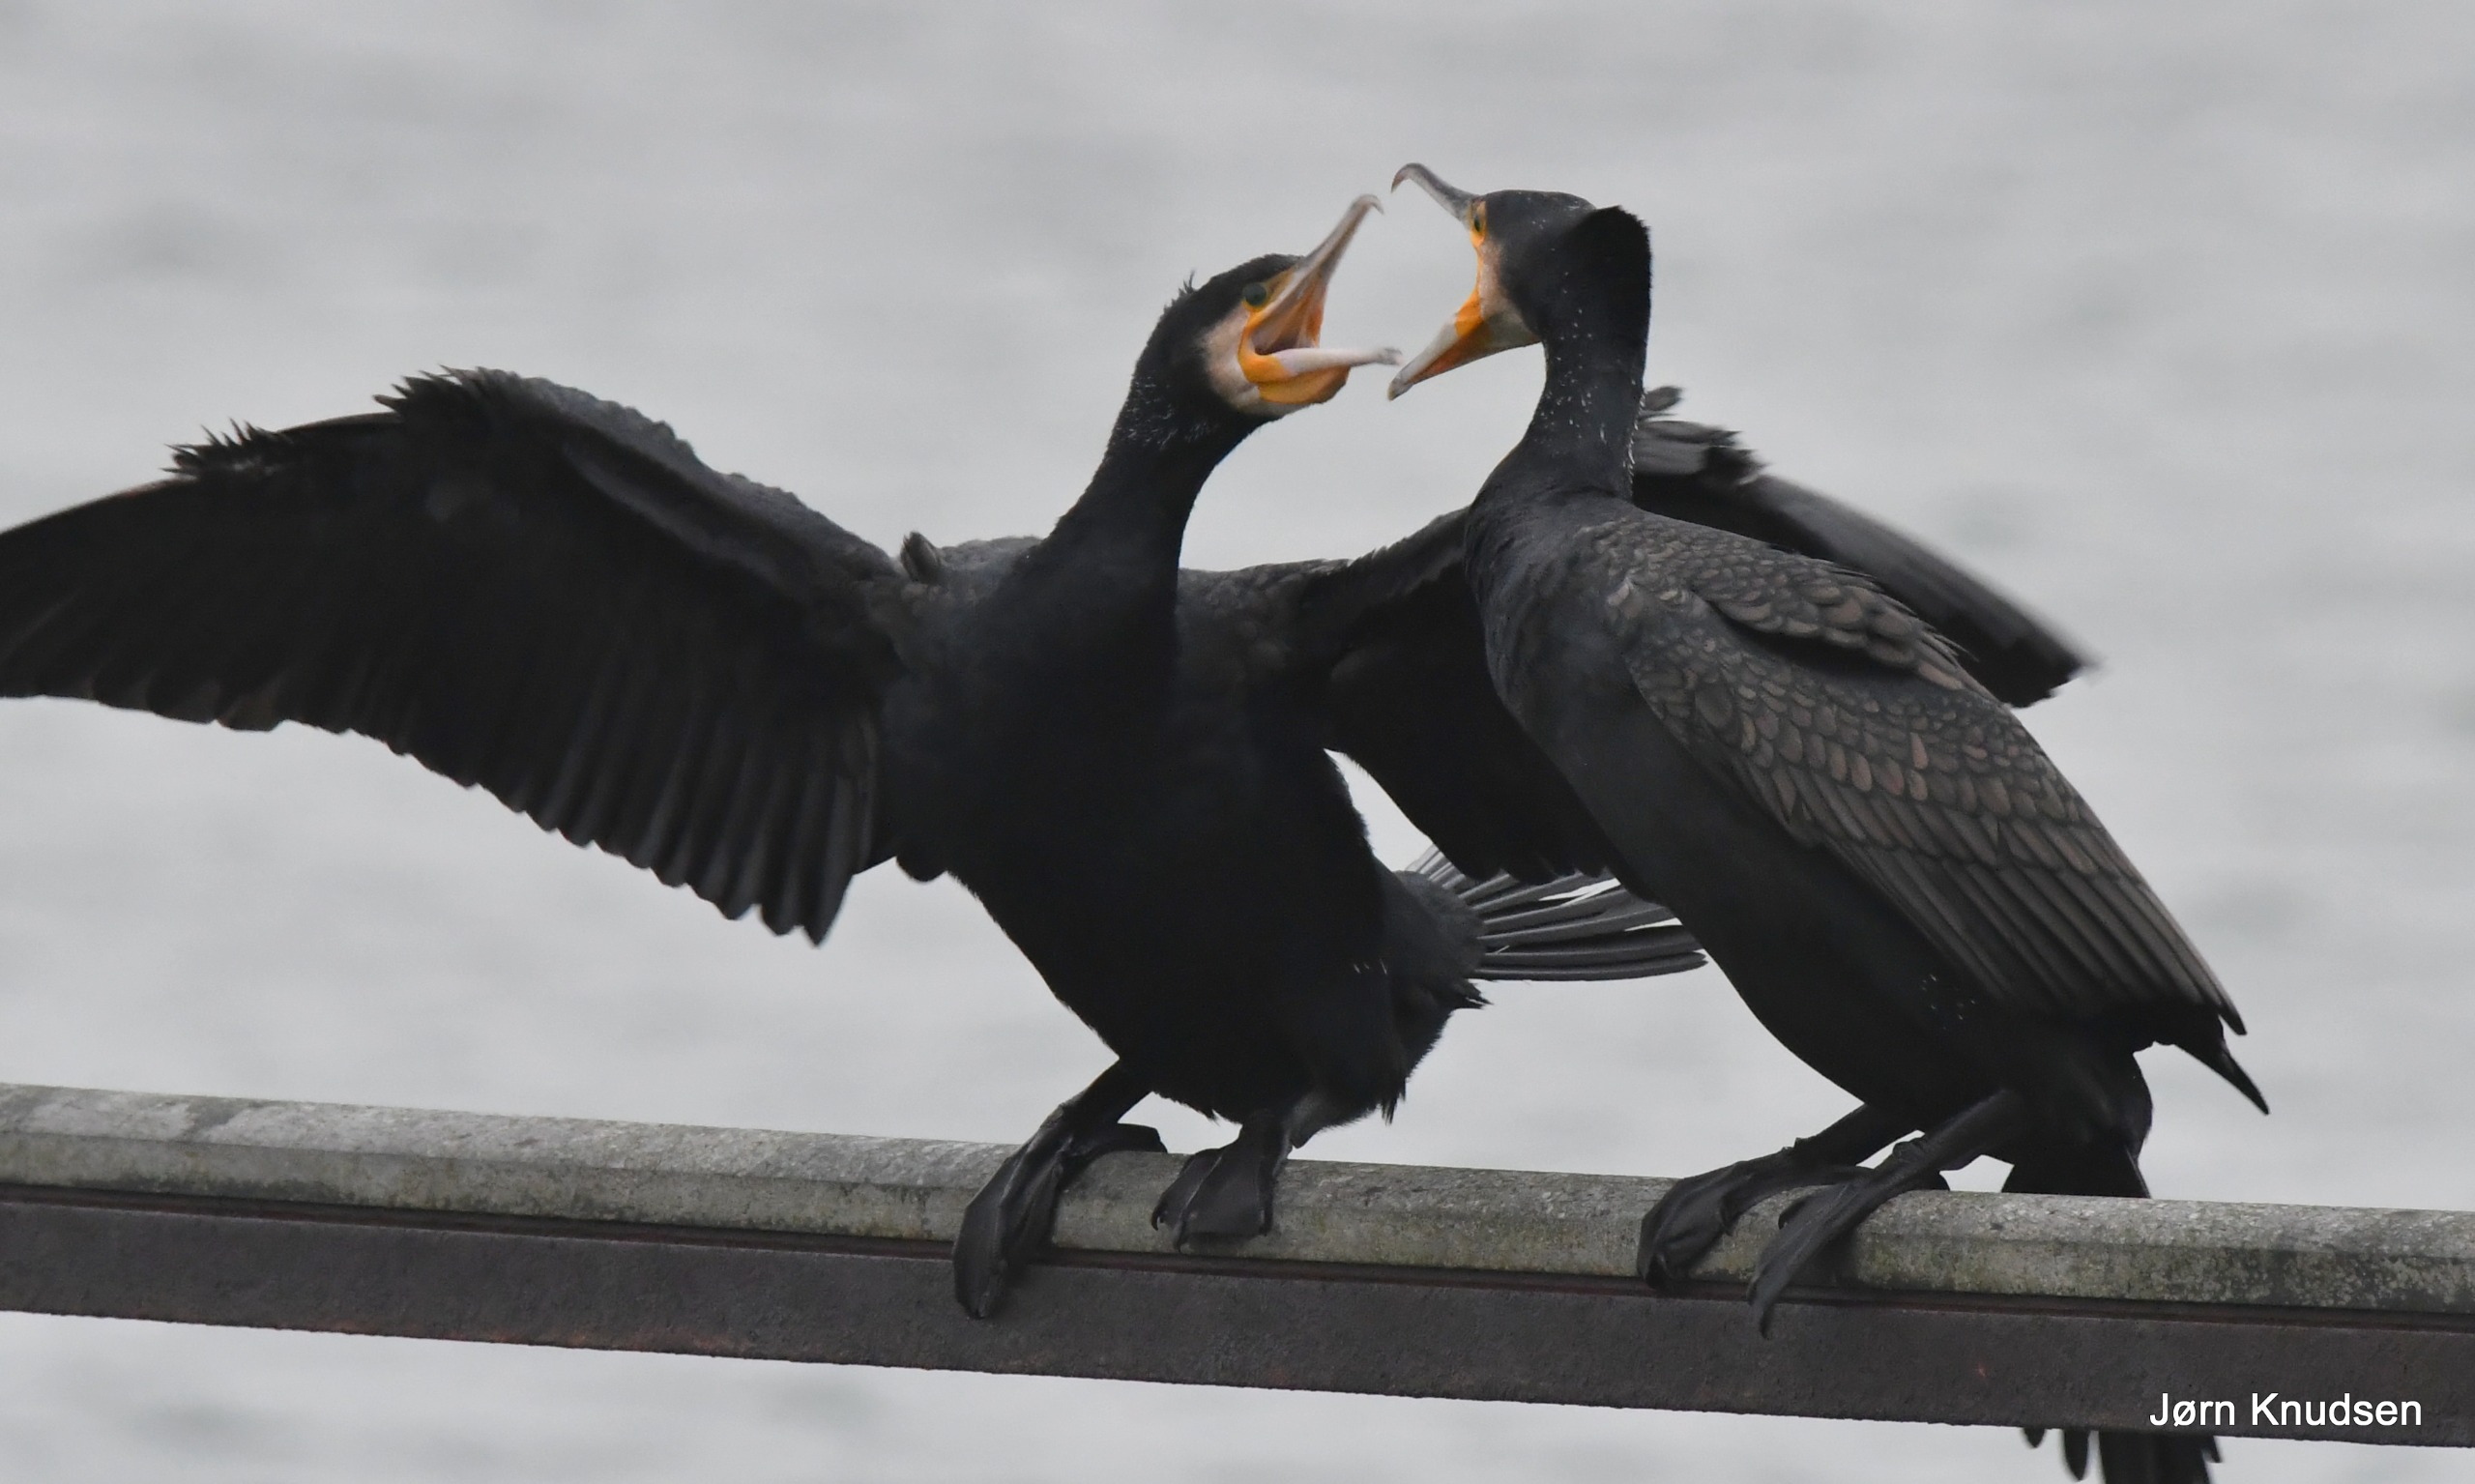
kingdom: Animalia
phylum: Chordata
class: Aves
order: Suliformes
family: Phalacrocoracidae
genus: Phalacrocorax
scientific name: Phalacrocorax carbo
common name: Skarv
